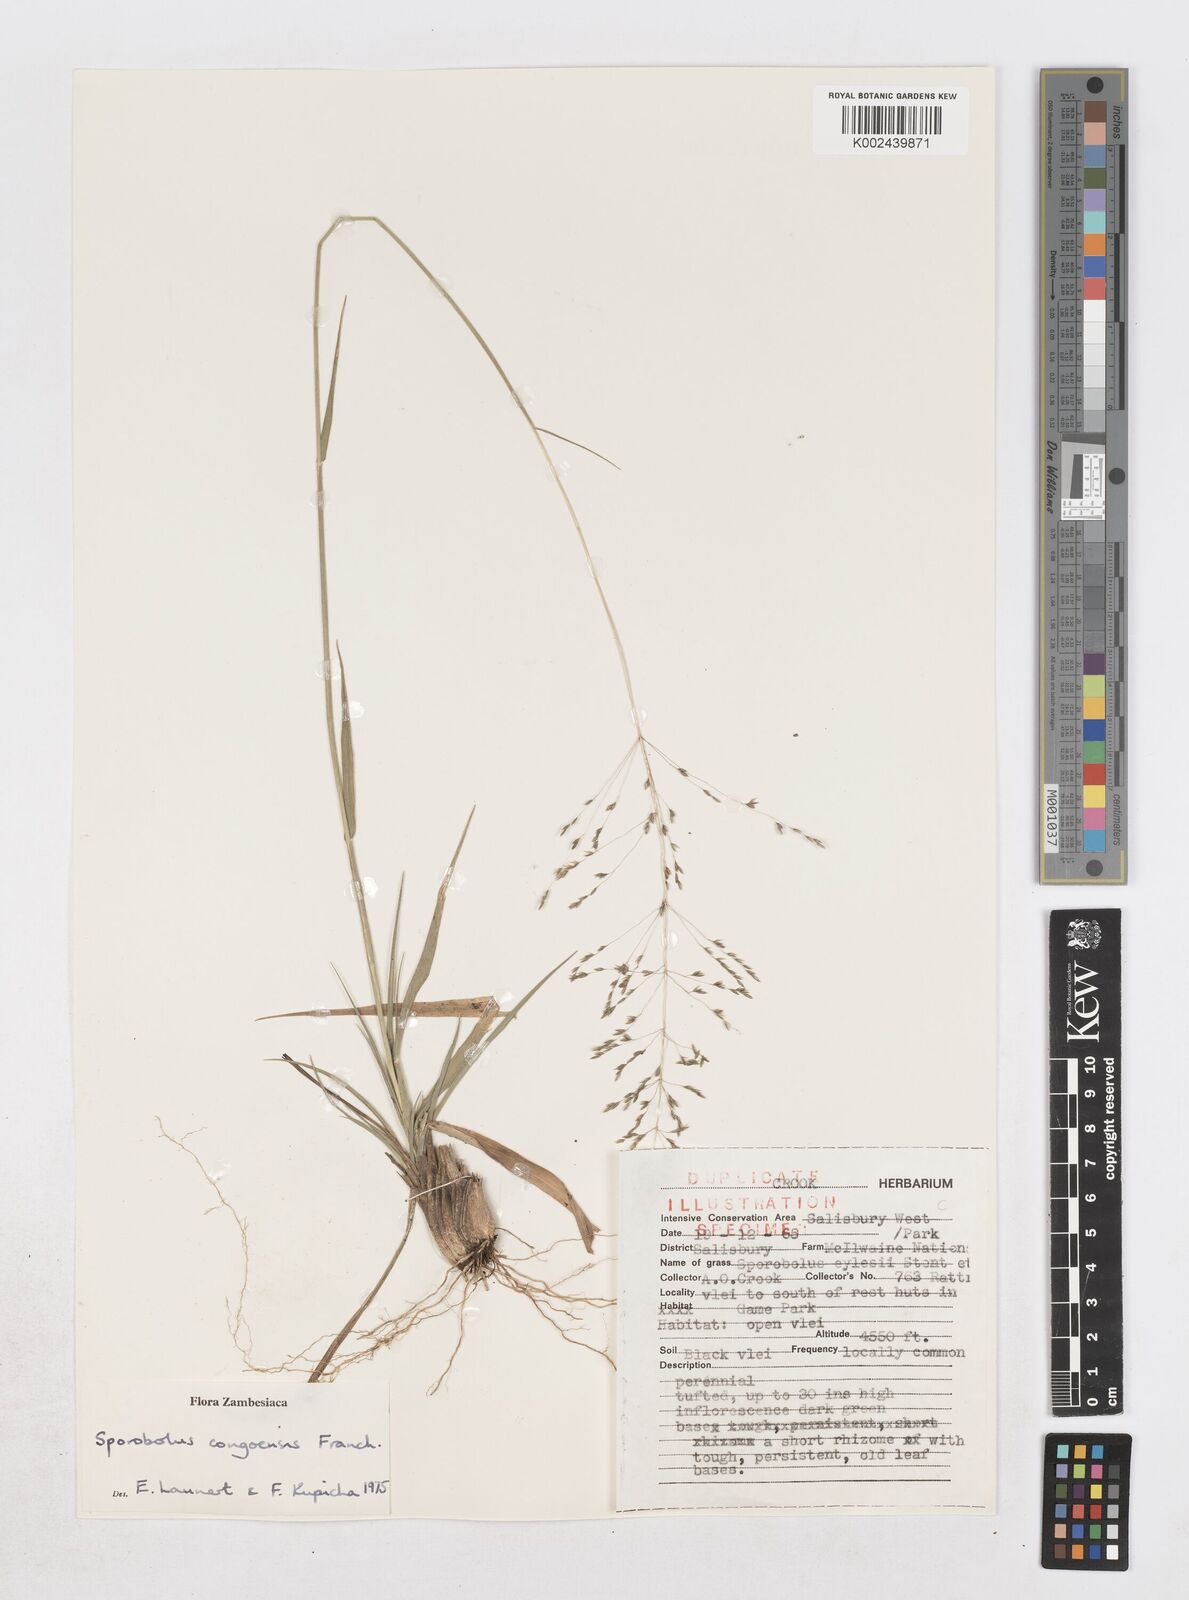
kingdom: Plantae
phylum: Tracheophyta
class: Liliopsida
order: Poales
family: Poaceae
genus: Sporobolus
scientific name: Sporobolus congoensis
